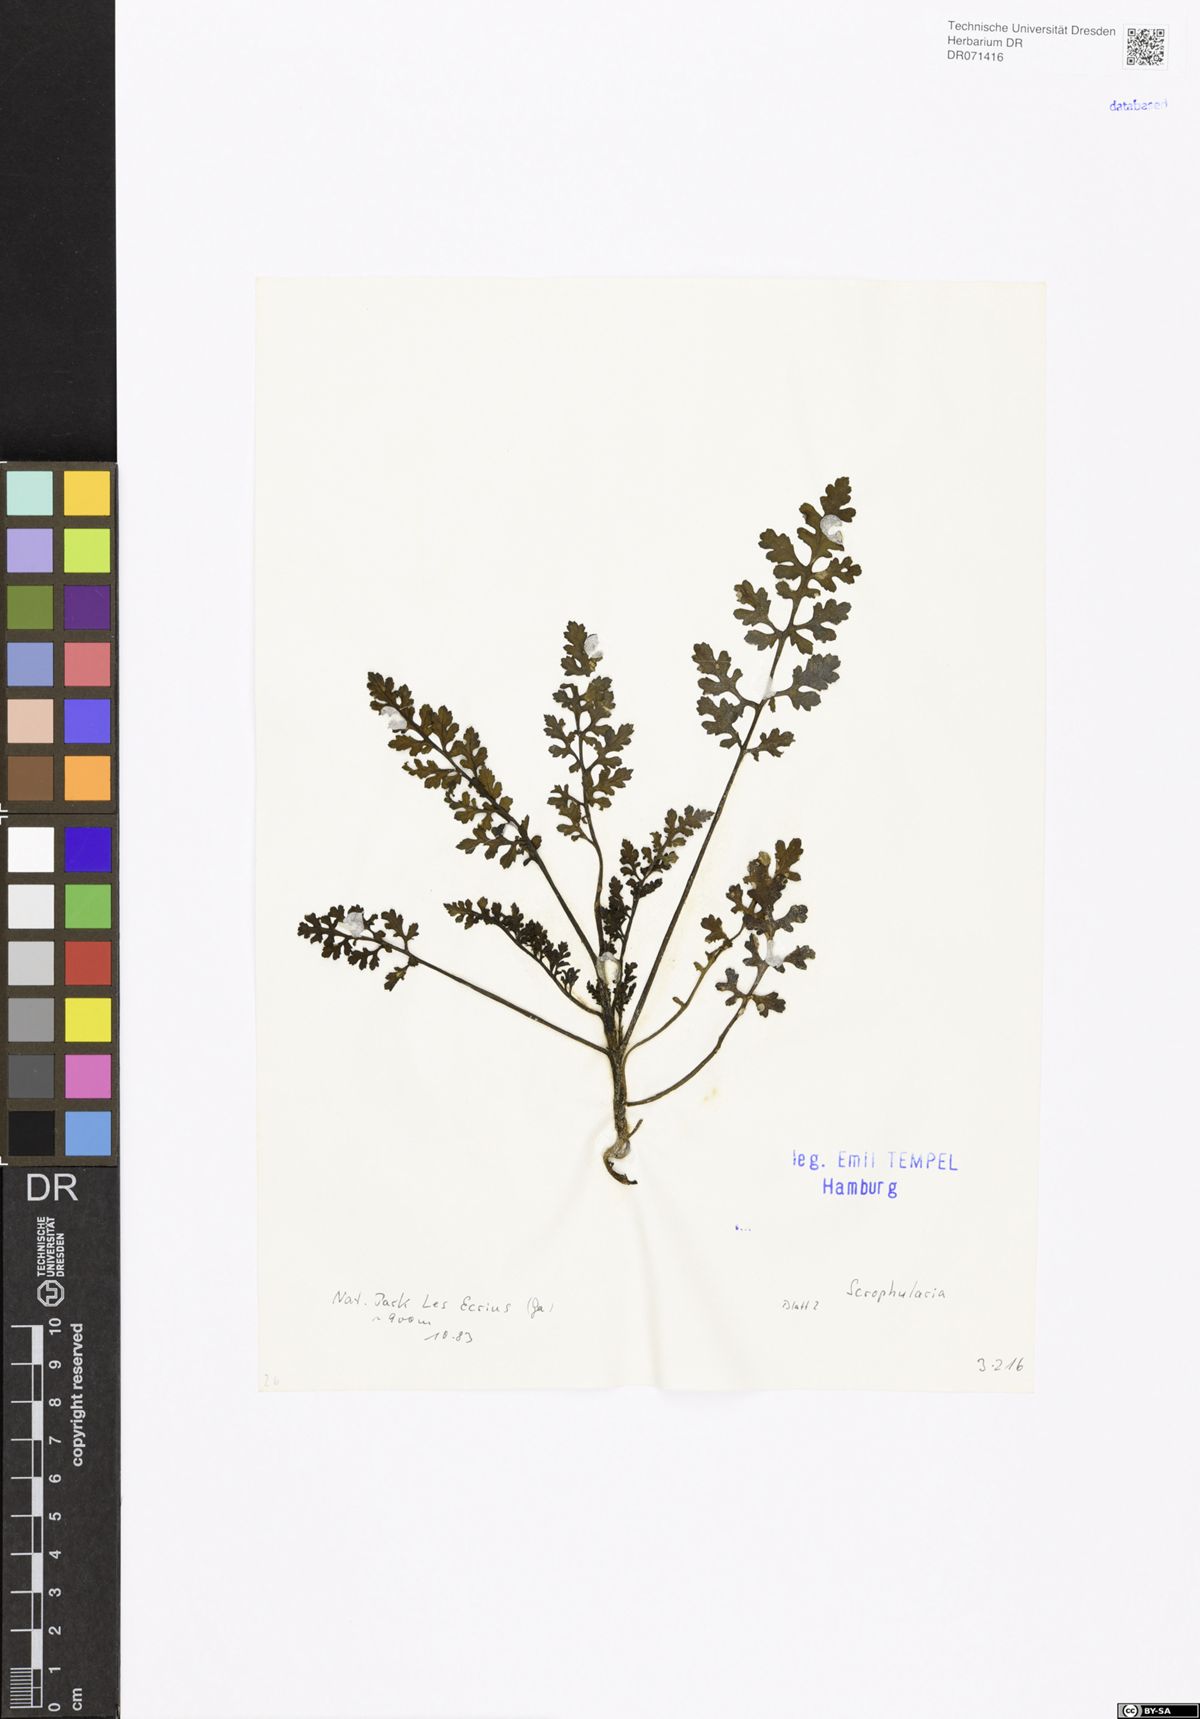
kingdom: Plantae
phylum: Tracheophyta
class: Magnoliopsida
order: Lamiales
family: Scrophulariaceae
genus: Scrophularia
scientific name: Scrophularia
